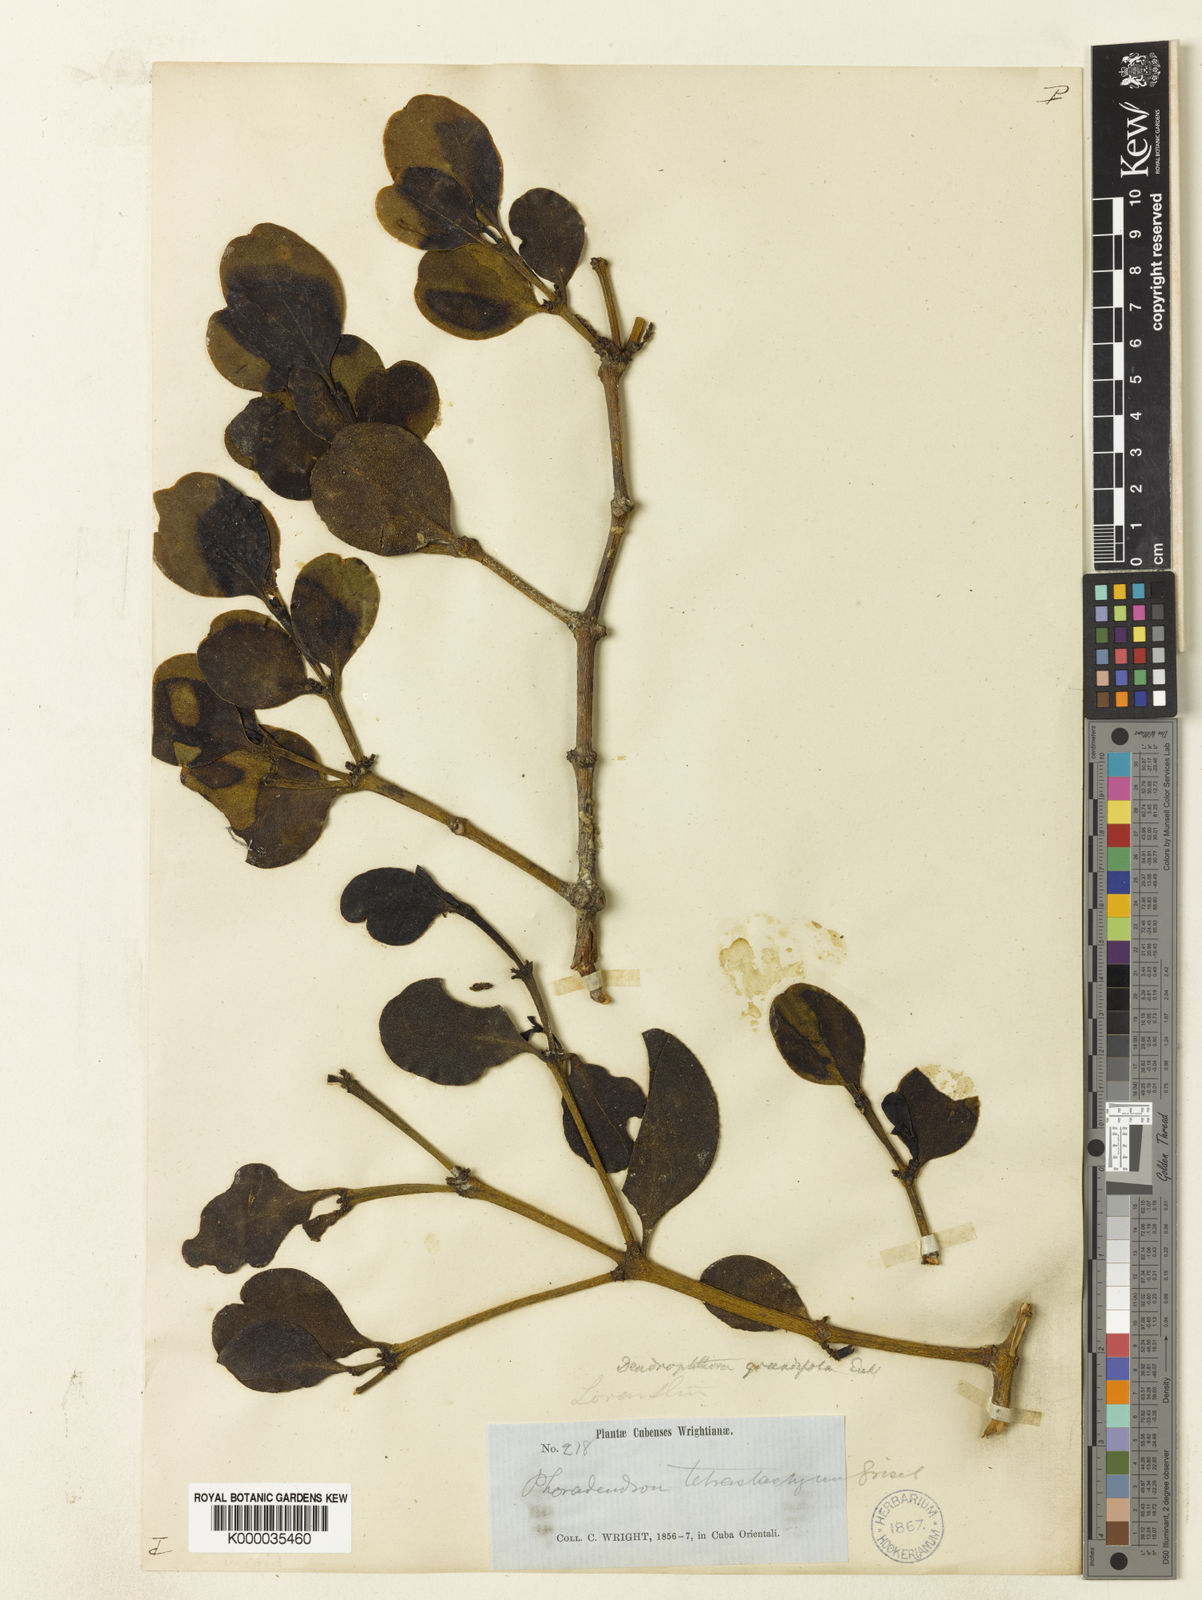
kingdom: Plantae
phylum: Tracheophyta
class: Magnoliopsida
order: Santalales
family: Viscaceae
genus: Dendrophthora
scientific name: Dendrophthora grandifolia
